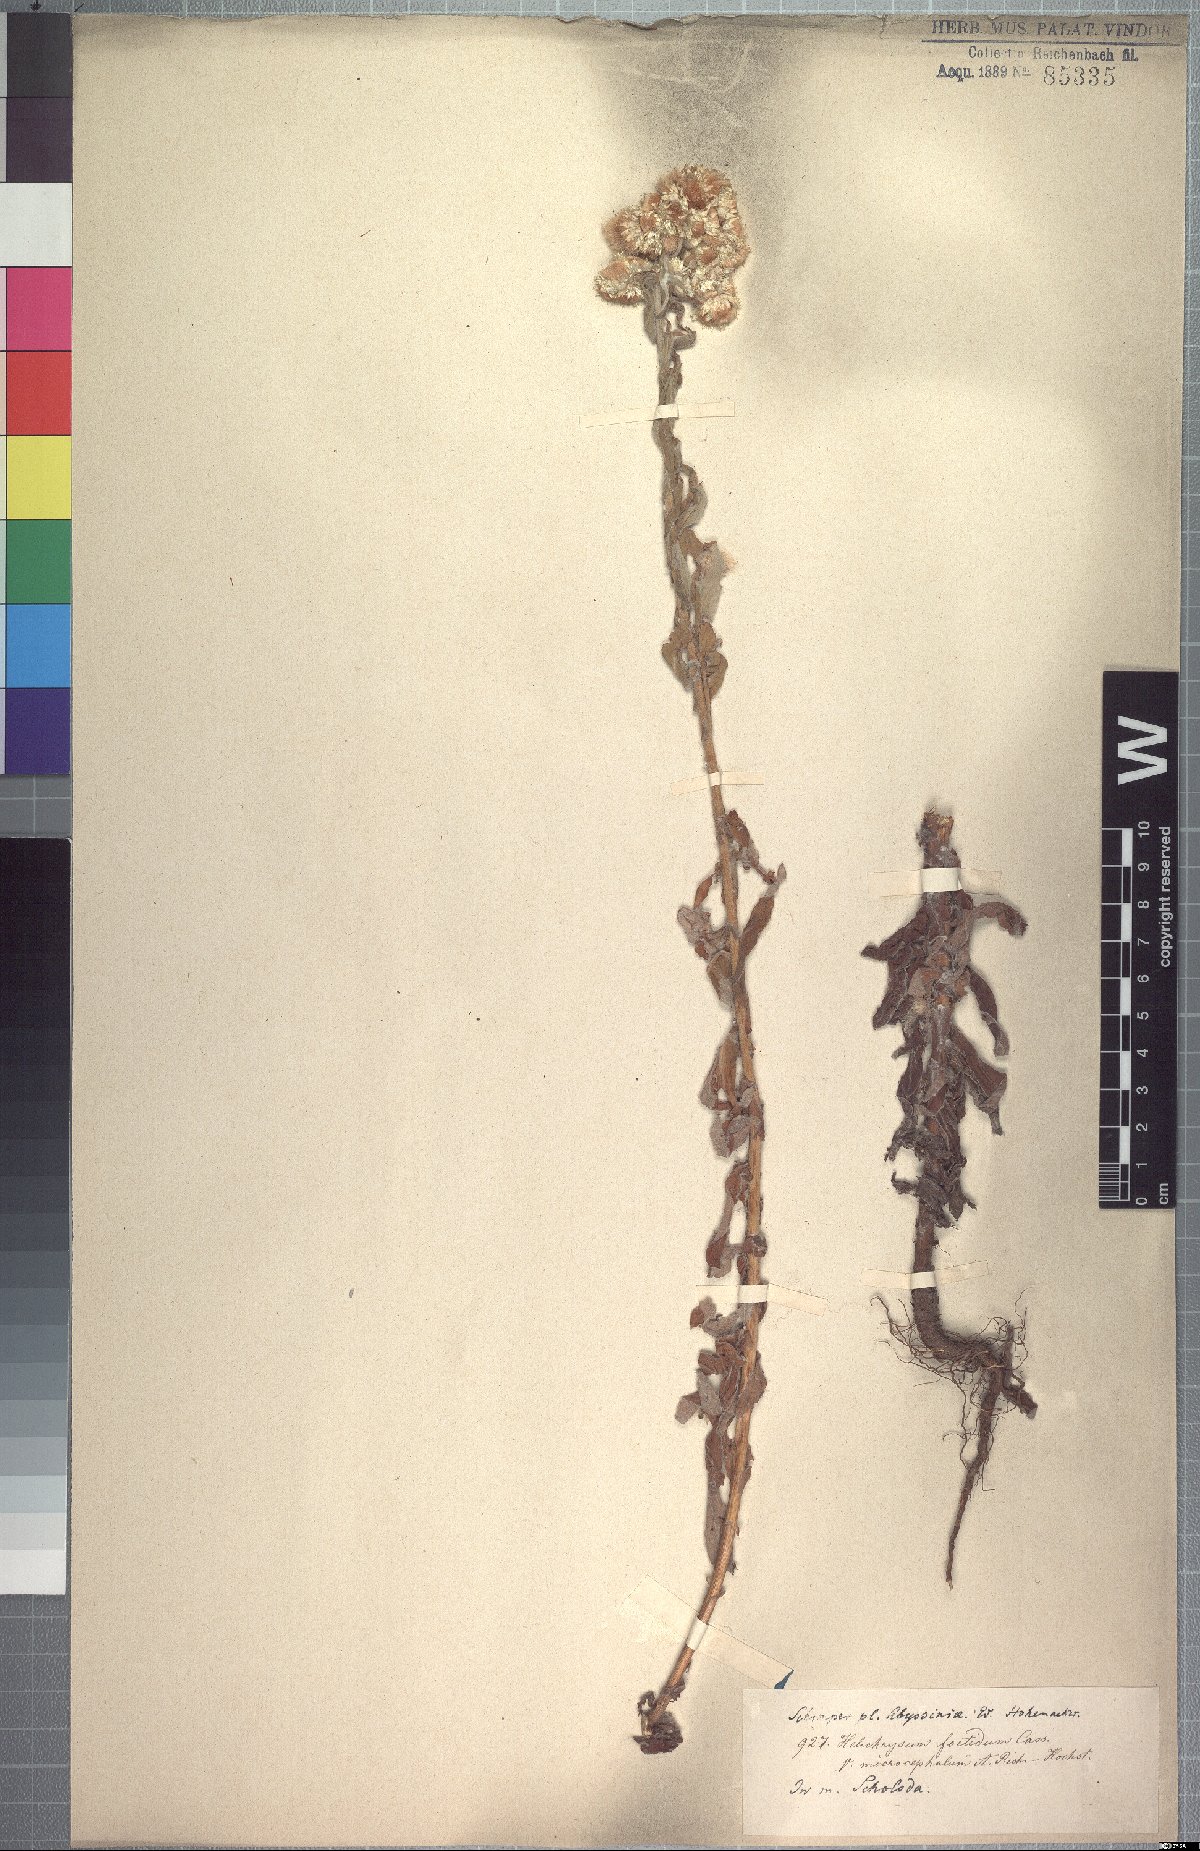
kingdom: Plantae
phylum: Tracheophyta
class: Magnoliopsida
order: Asterales
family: Asteraceae
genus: Helichrysum
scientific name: Helichrysum foetidum
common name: Stinking everlasting
